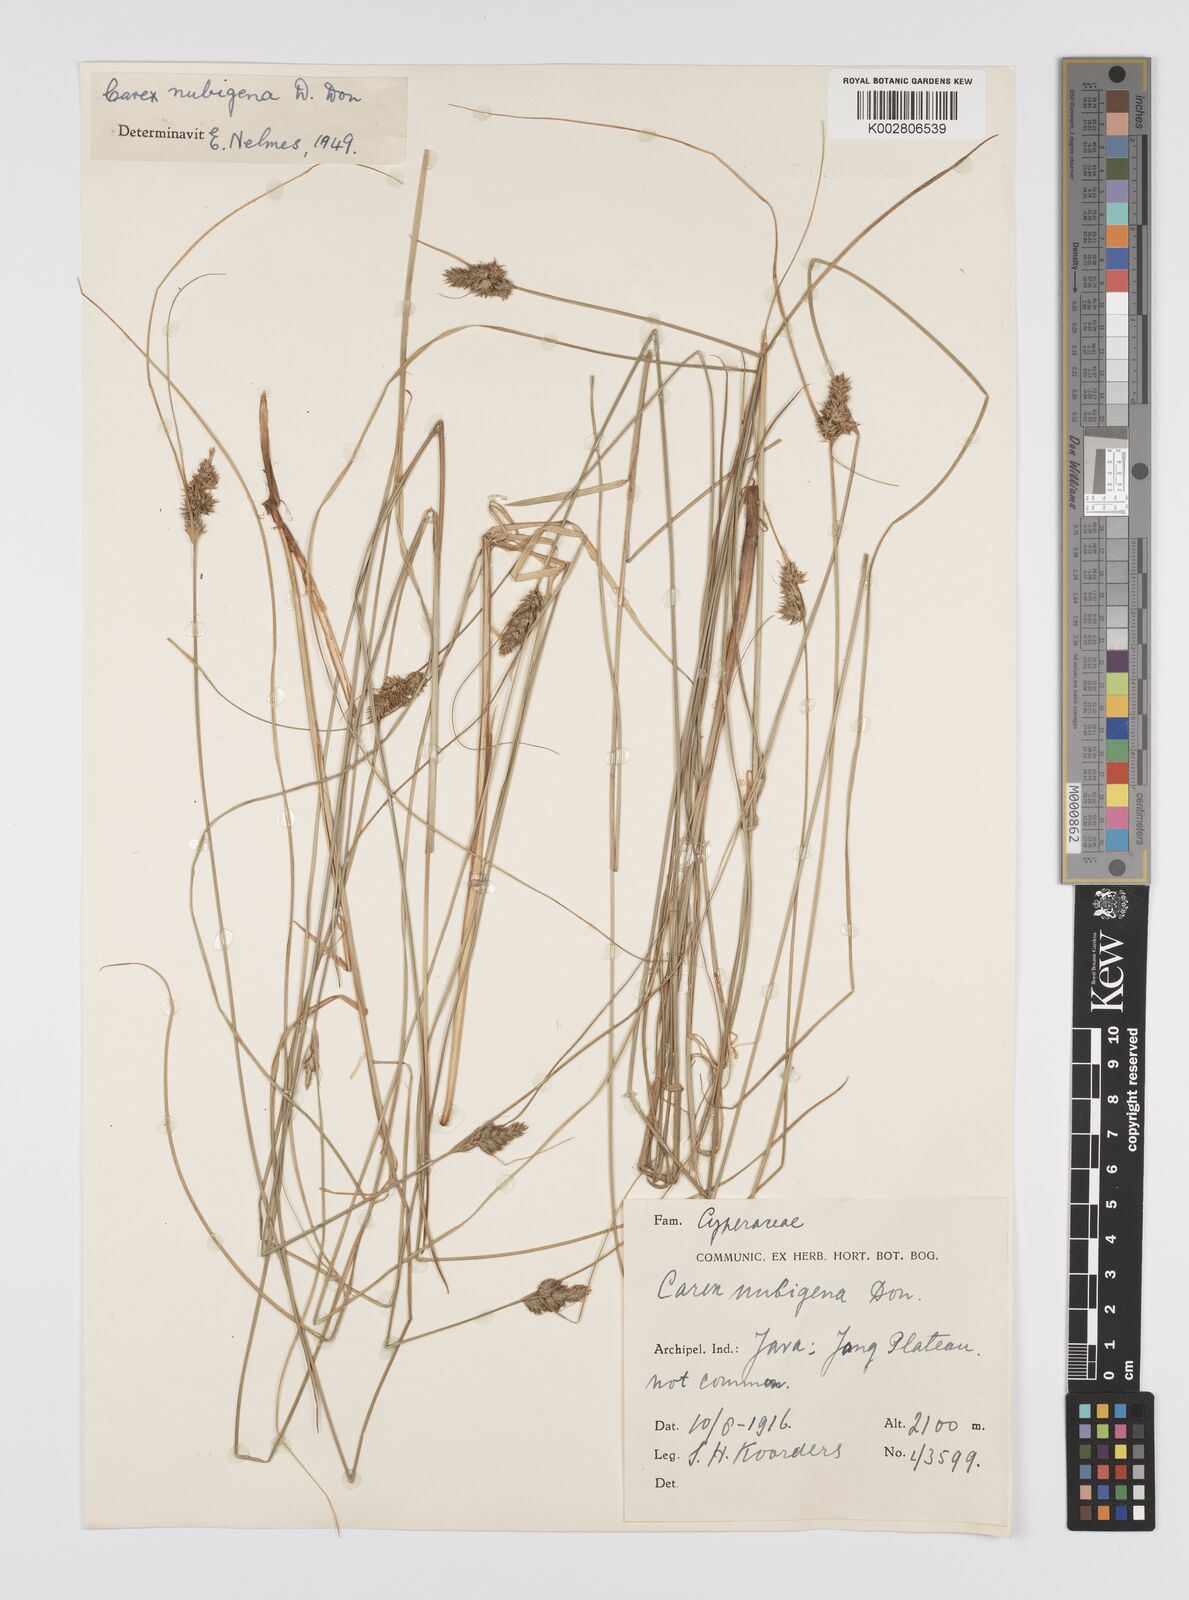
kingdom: Plantae
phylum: Tracheophyta
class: Liliopsida
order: Poales
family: Cyperaceae
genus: Carex
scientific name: Carex
